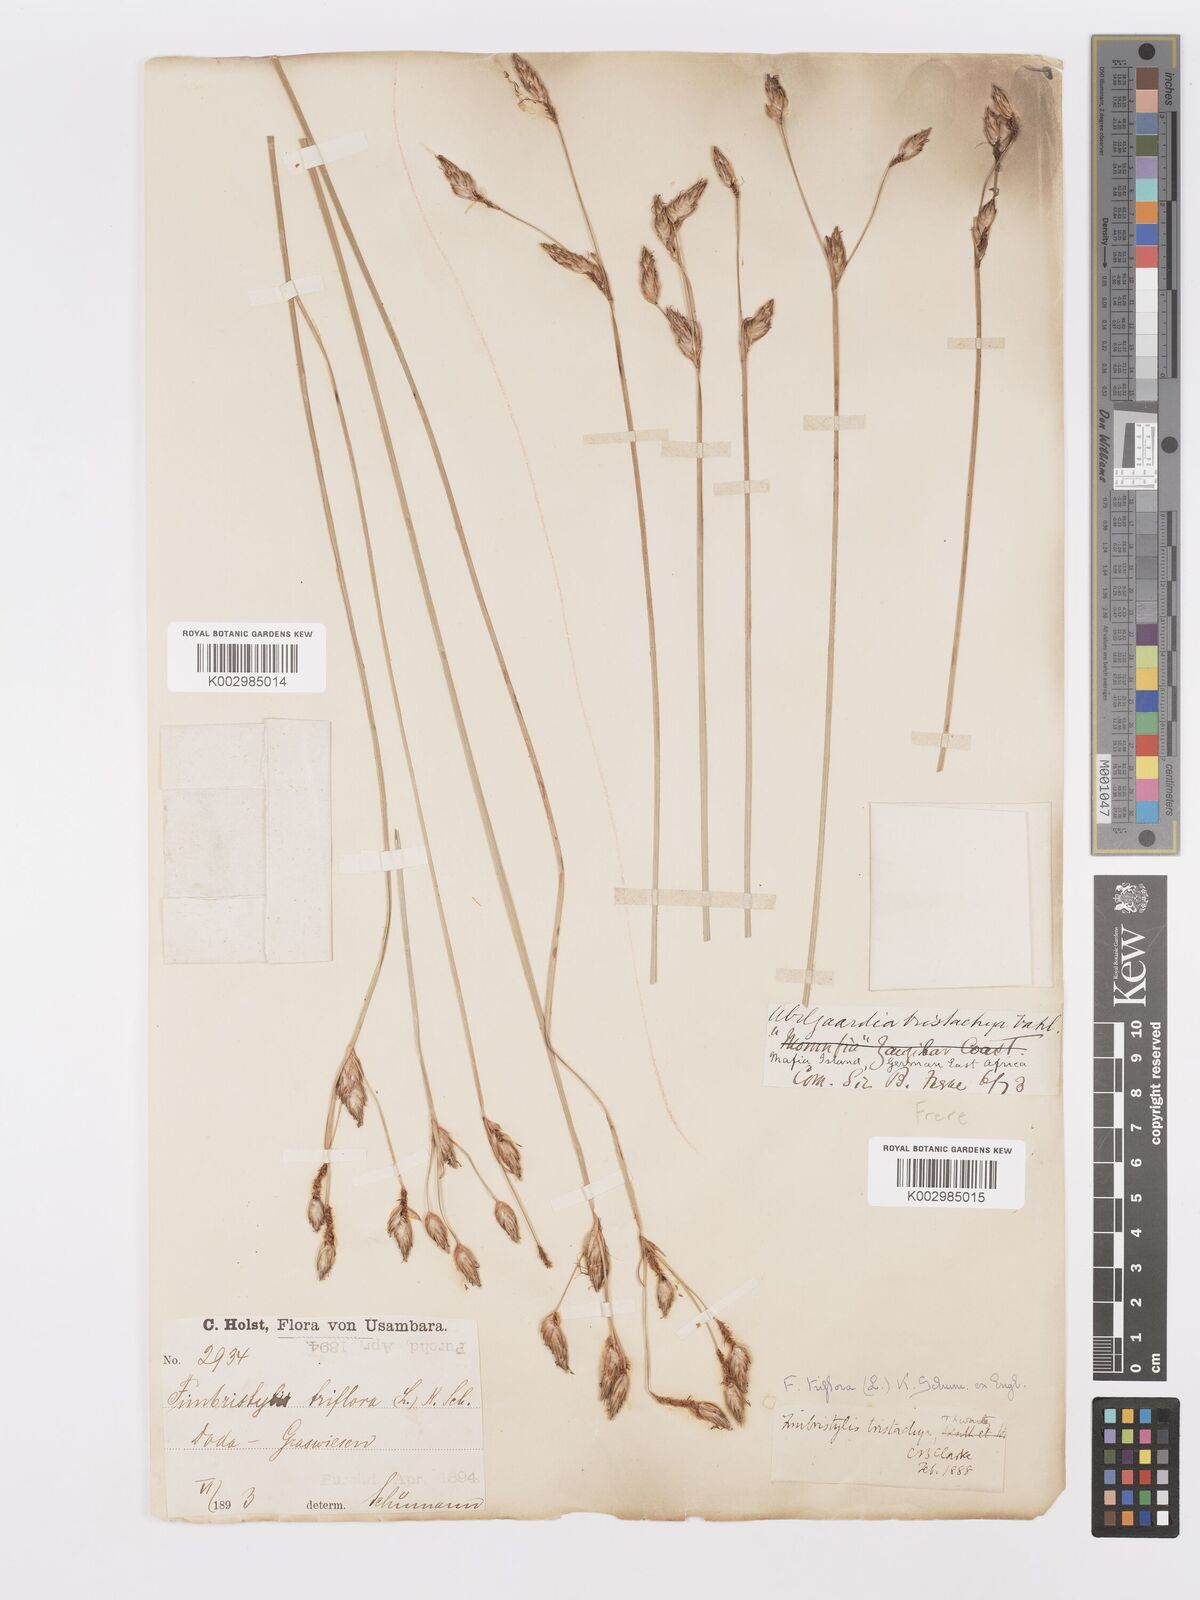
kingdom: Plantae
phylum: Tracheophyta
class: Liliopsida
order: Poales
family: Cyperaceae
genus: Abildgaardia
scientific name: Abildgaardia triflora
